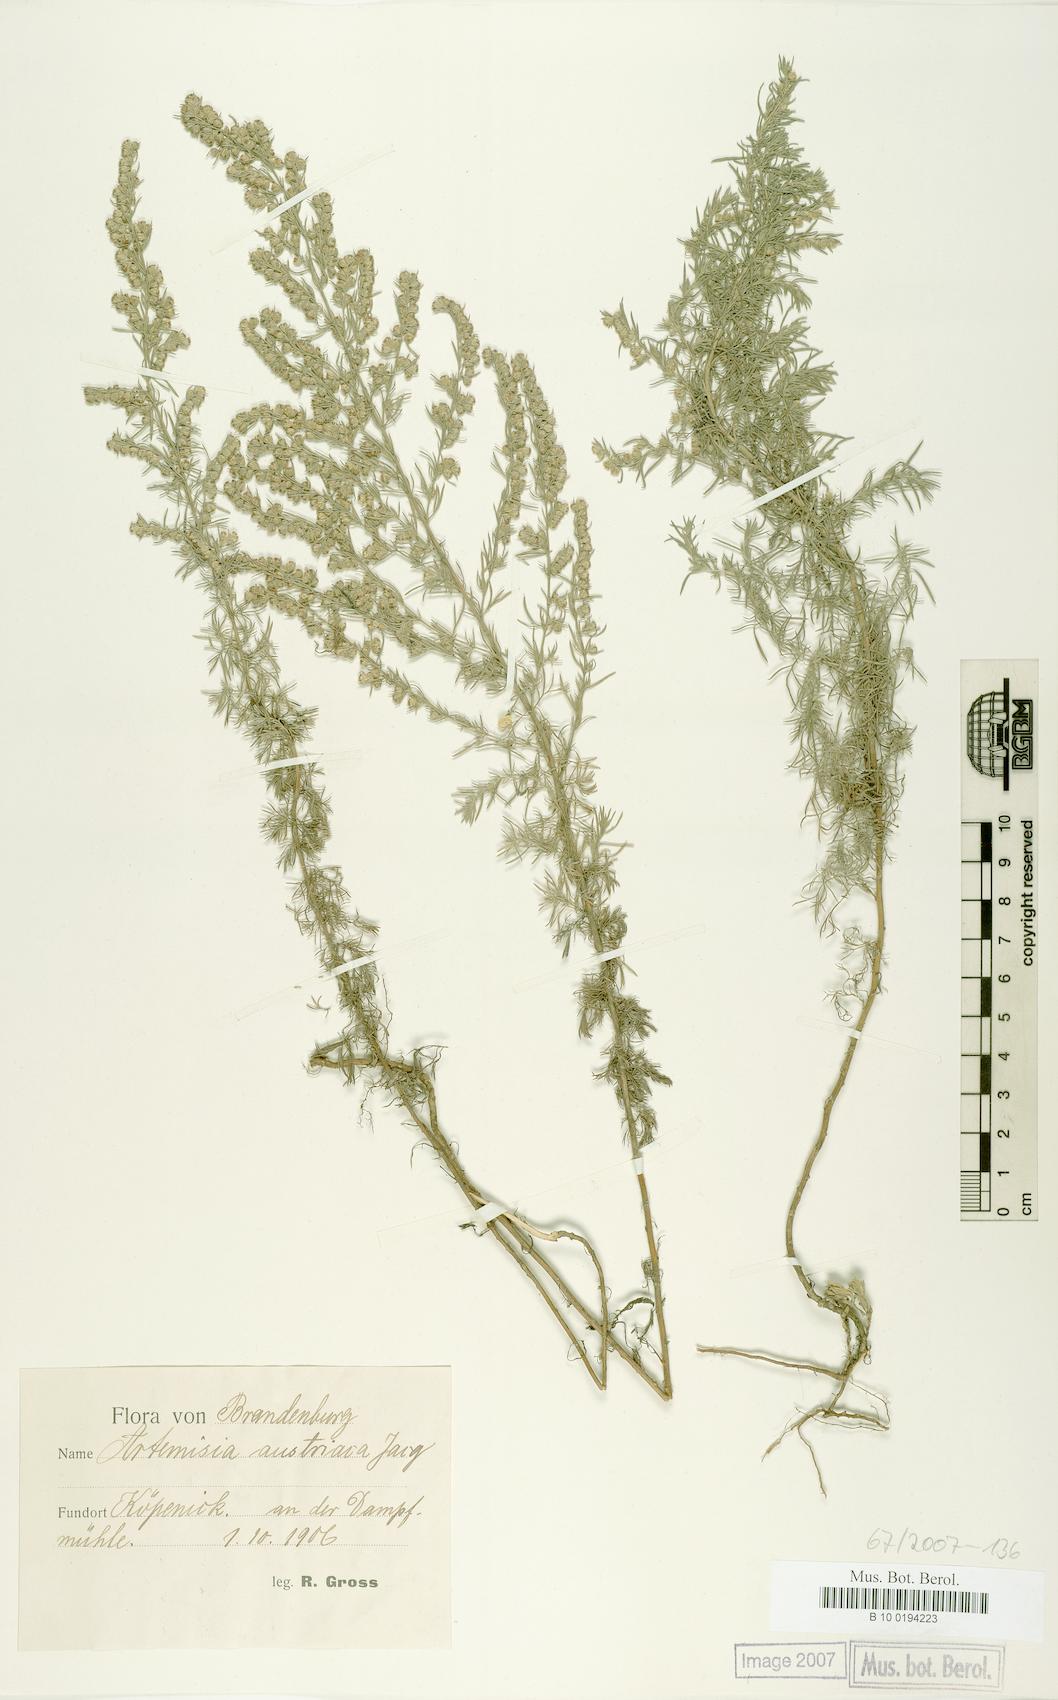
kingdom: Plantae
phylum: Tracheophyta
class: Magnoliopsida
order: Asterales
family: Asteraceae
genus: Artemisia
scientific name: Artemisia austriaca
